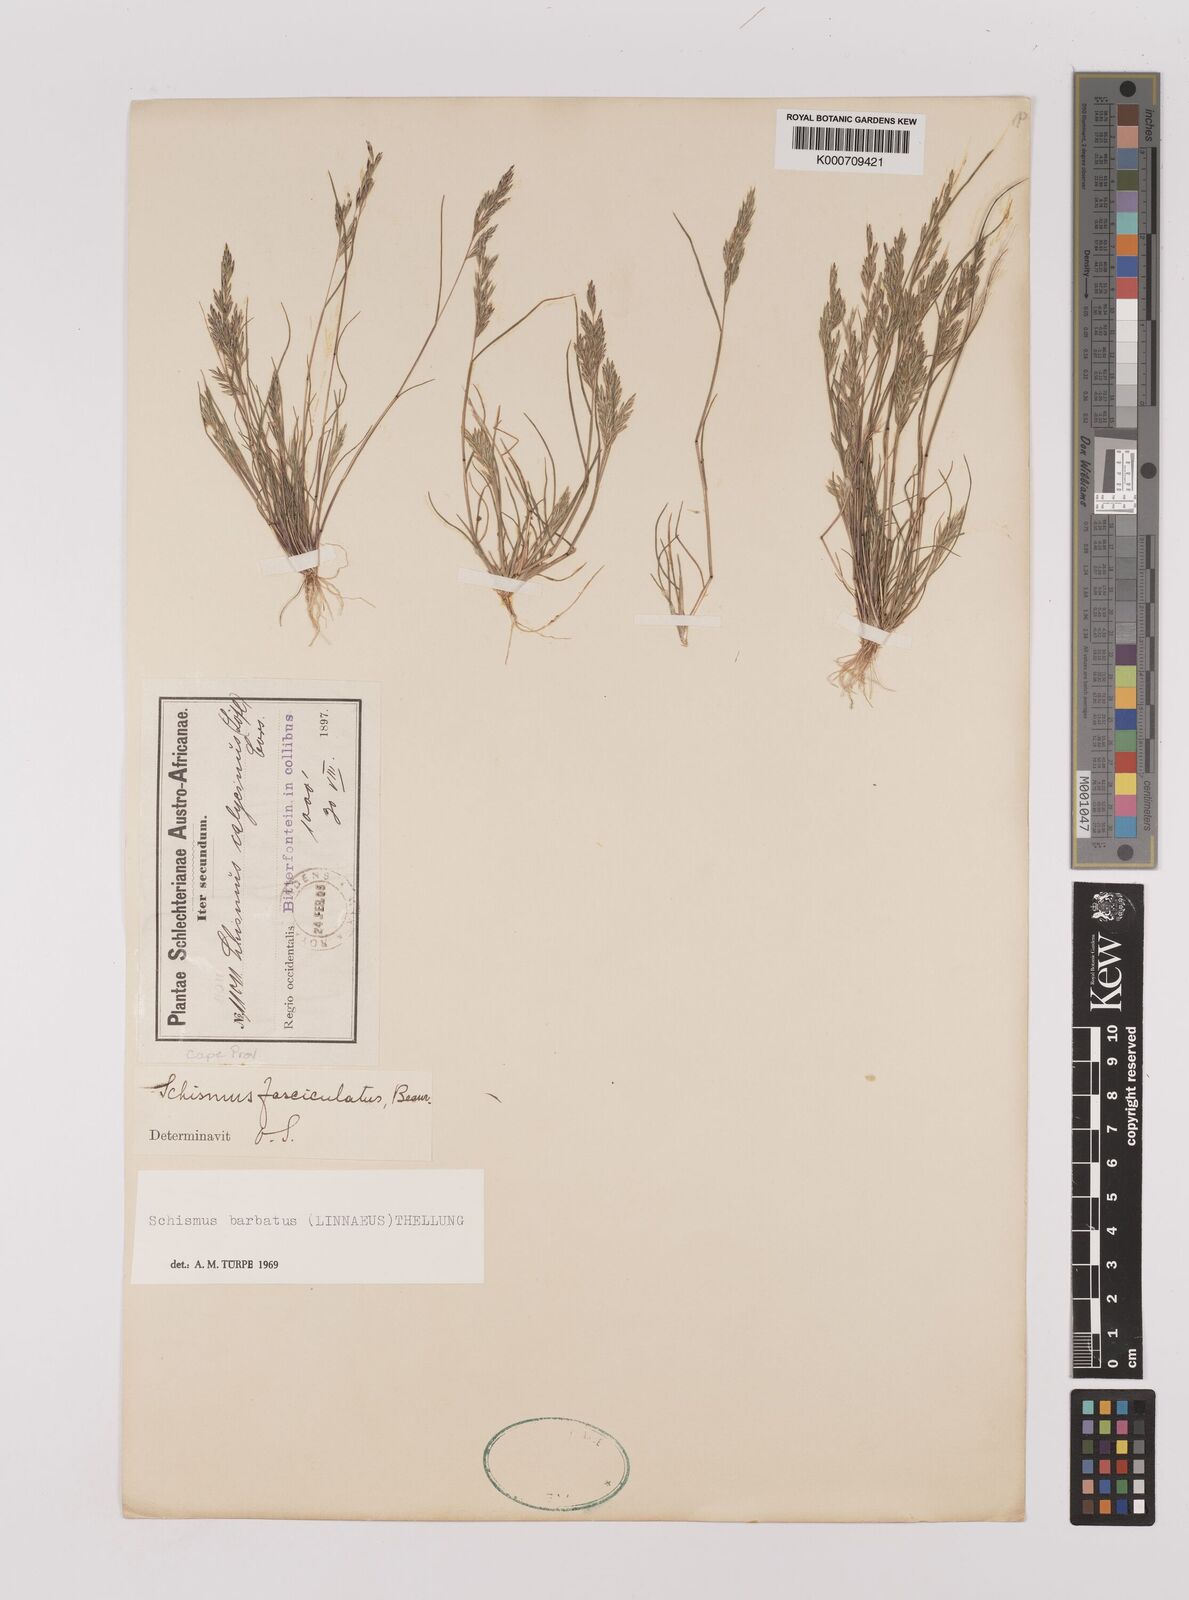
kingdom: Plantae
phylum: Tracheophyta
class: Liliopsida
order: Poales
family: Poaceae
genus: Schismus
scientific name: Schismus barbatus
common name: Kelch-grass
